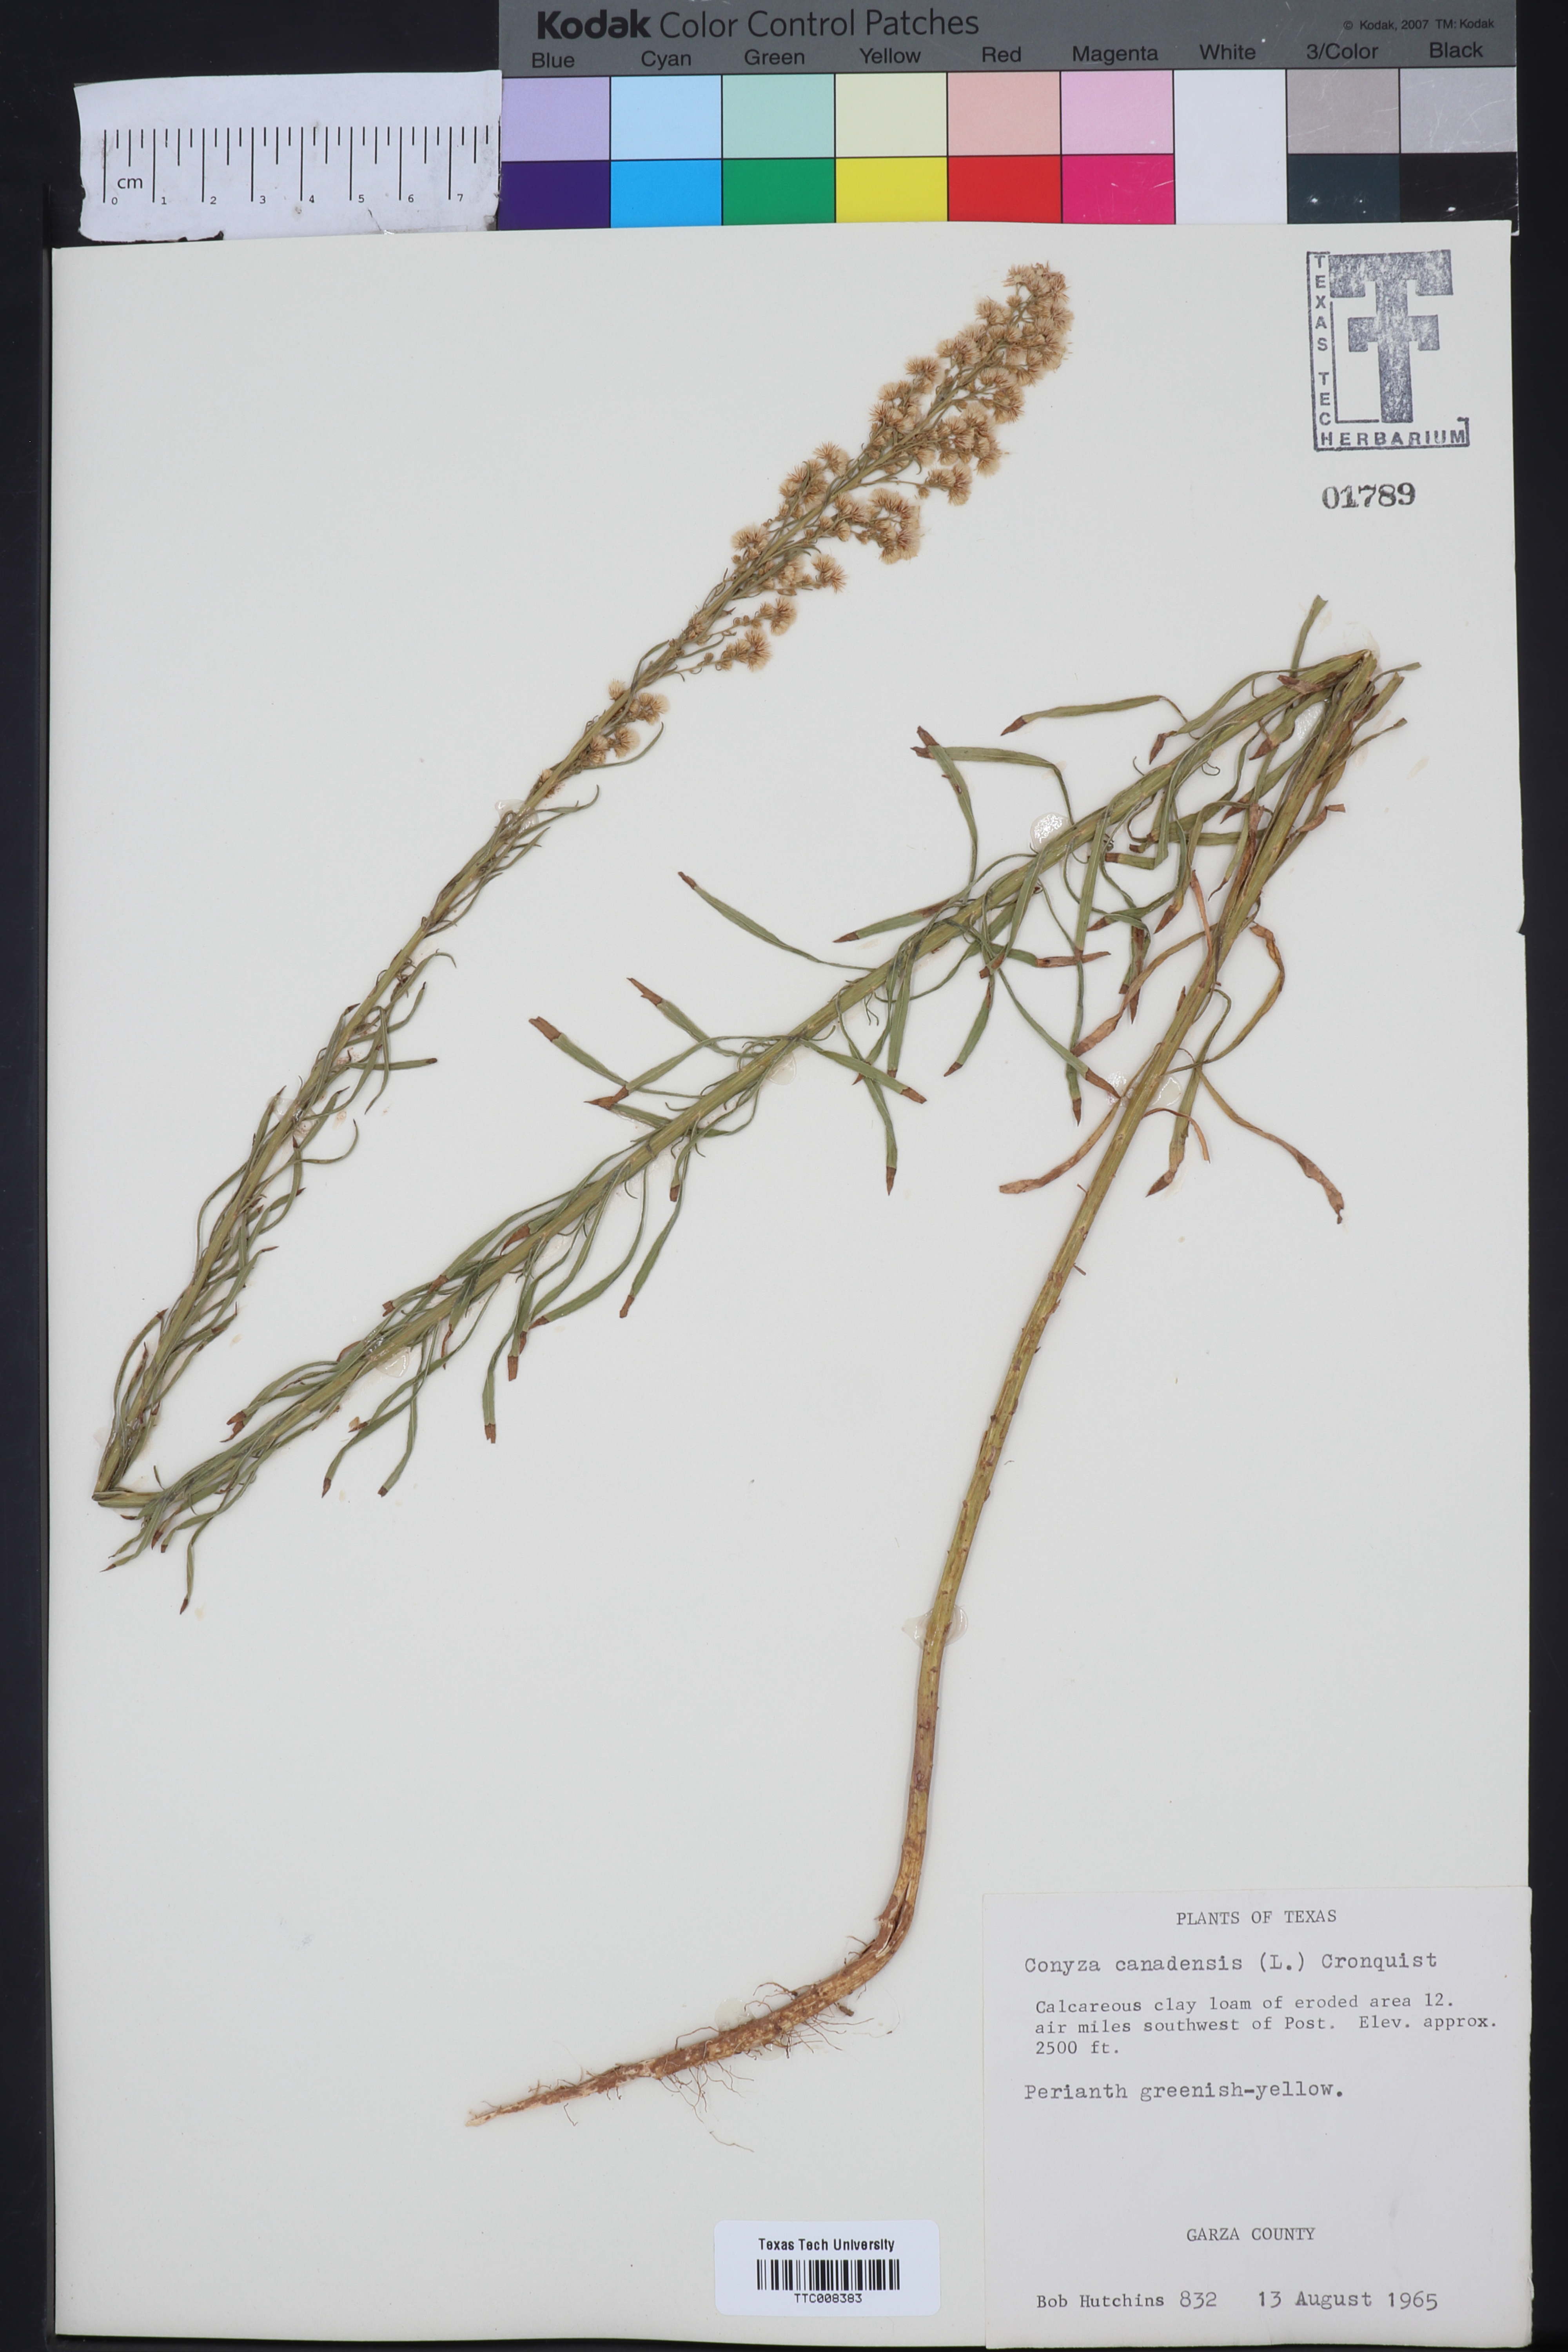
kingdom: Plantae
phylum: Tracheophyta
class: Magnoliopsida
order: Asterales
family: Asteraceae
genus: Erigeron
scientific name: Erigeron canadensis
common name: Canadian fleabane
